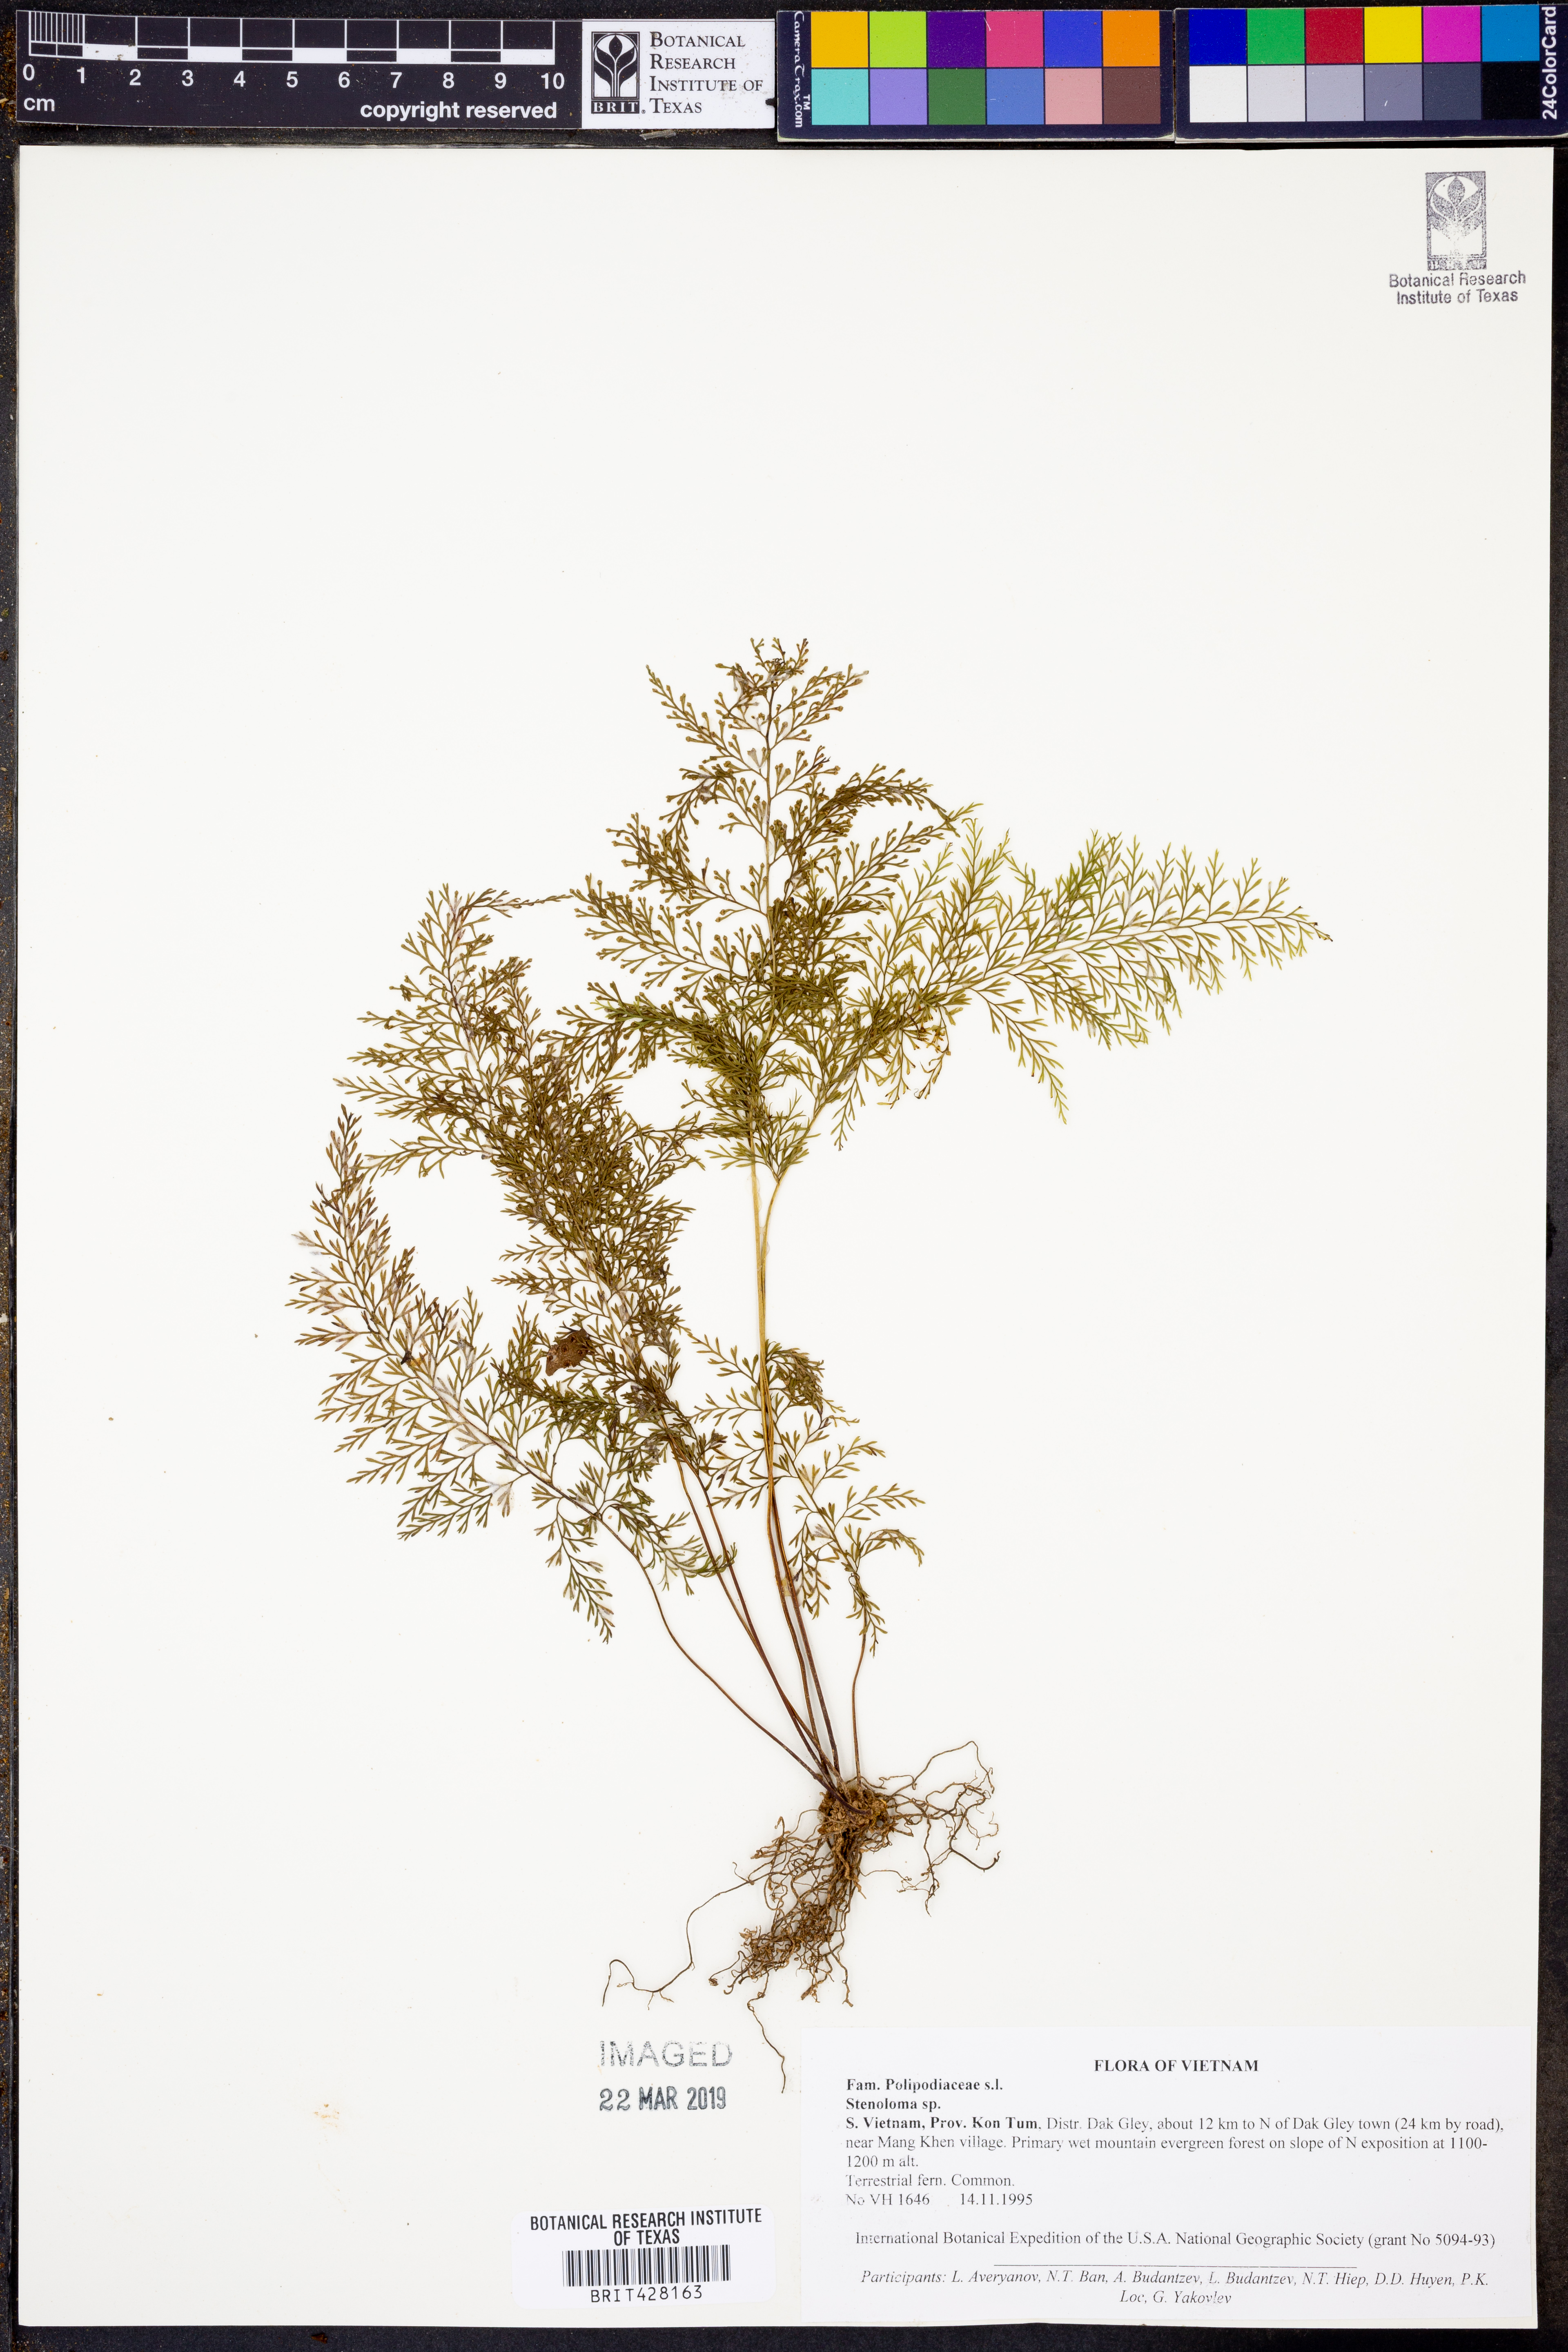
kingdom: Plantae
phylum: Tracheophyta
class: Polypodiopsida
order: Polypodiales
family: Lindsaeaceae
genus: Sphenomeris
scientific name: Sphenomeris
